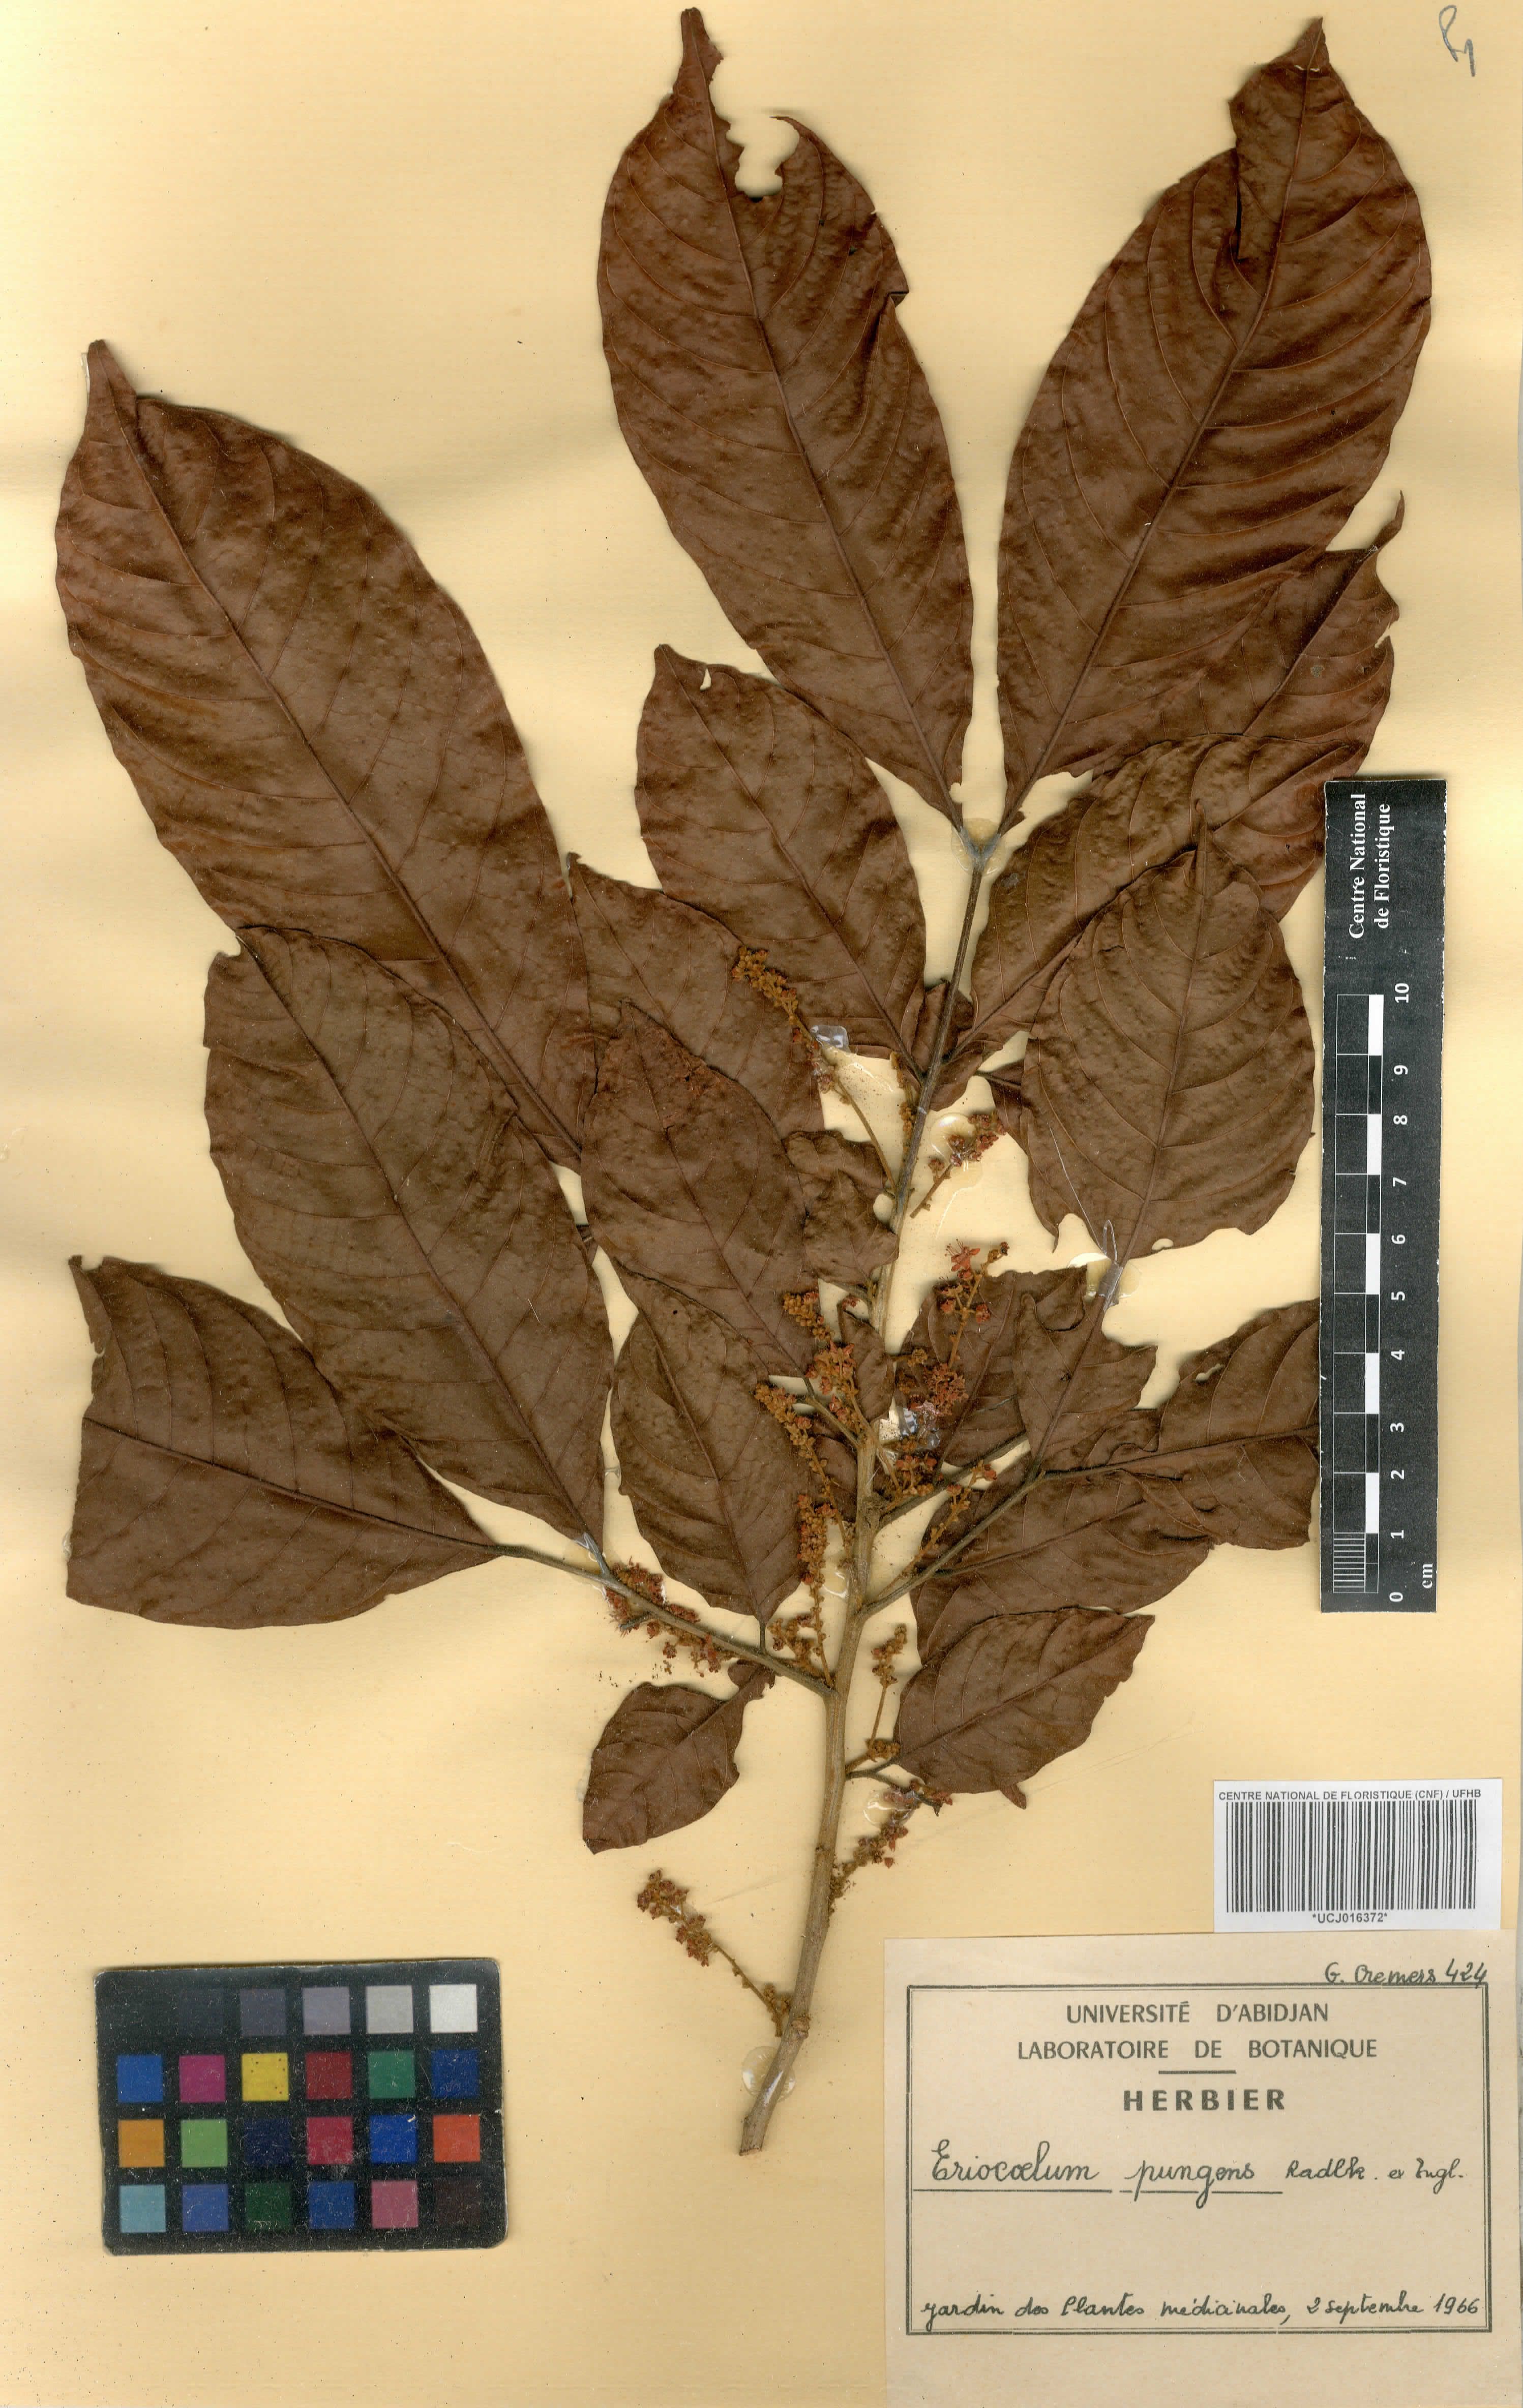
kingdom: Plantae
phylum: Tracheophyta
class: Magnoliopsida
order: Sapindales
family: Sapindaceae
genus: Eriocoelum
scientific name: Eriocoelum pungens
